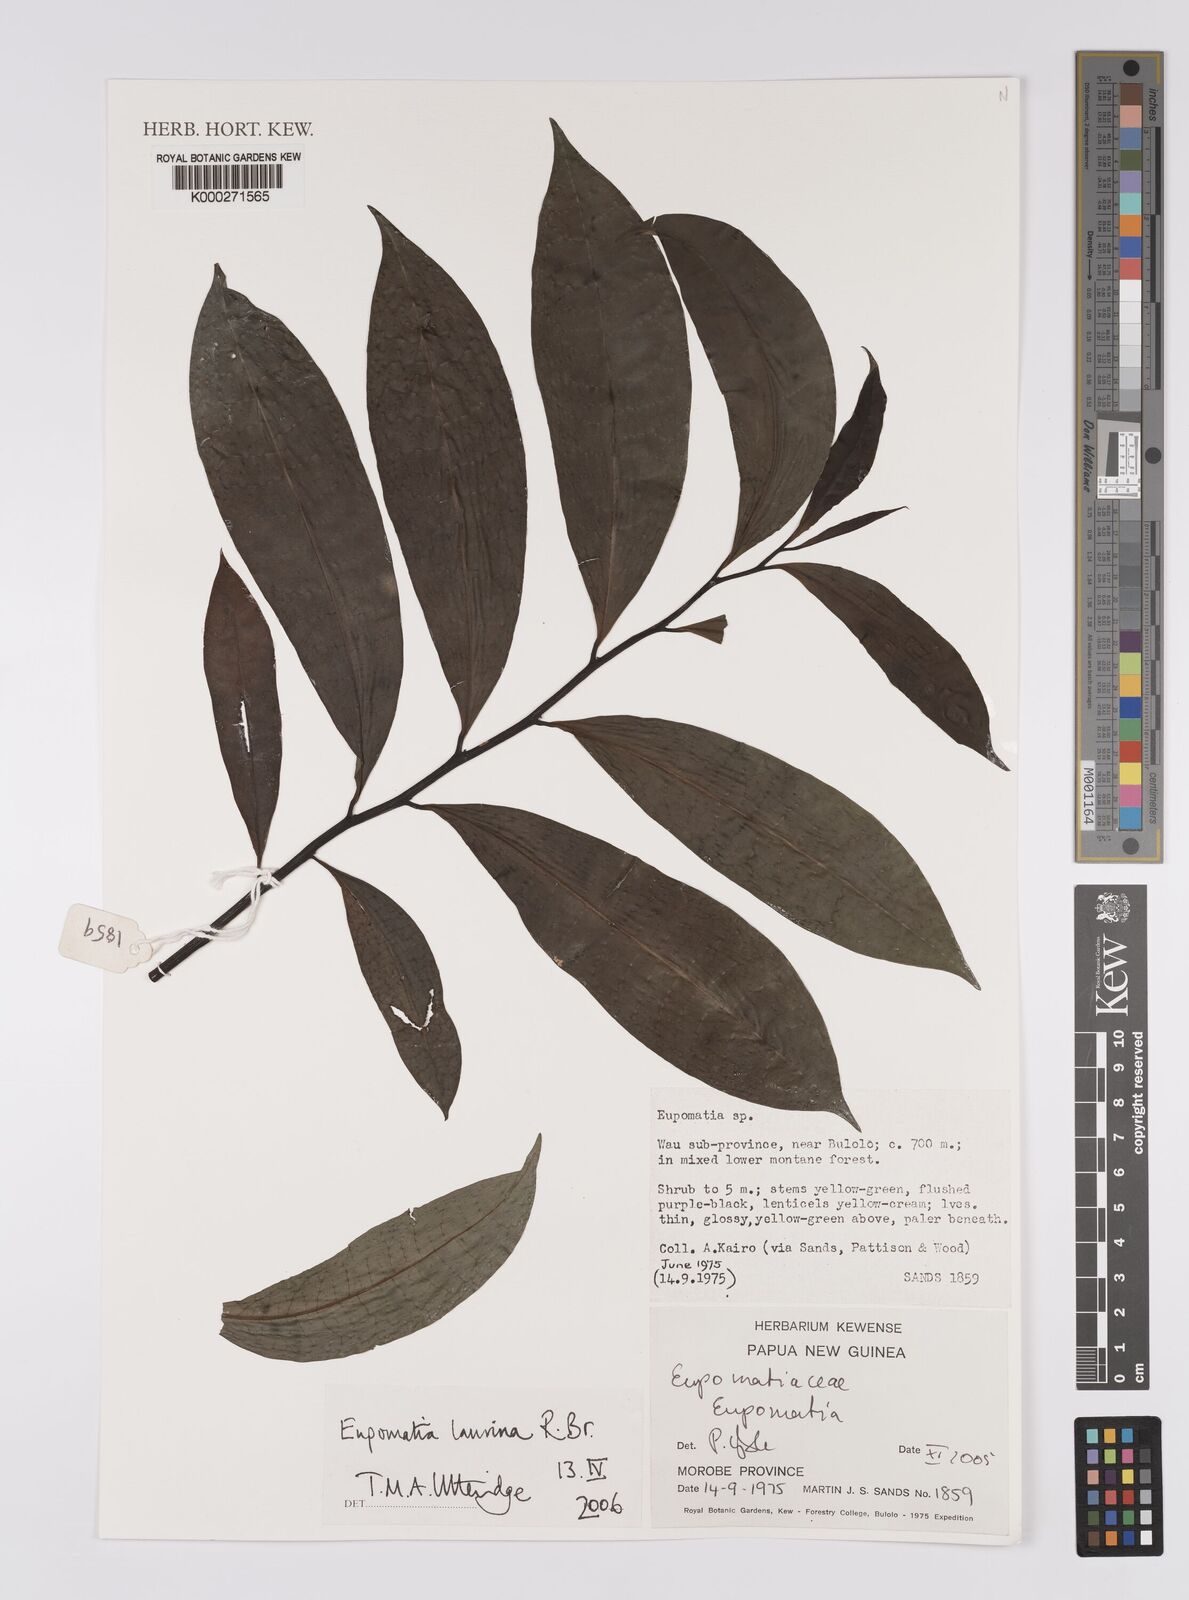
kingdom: Plantae
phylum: Tracheophyta
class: Magnoliopsida
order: Magnoliales
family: Eupomatiaceae
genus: Eupomatia
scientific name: Eupomatia laurina
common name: Bolwarra
